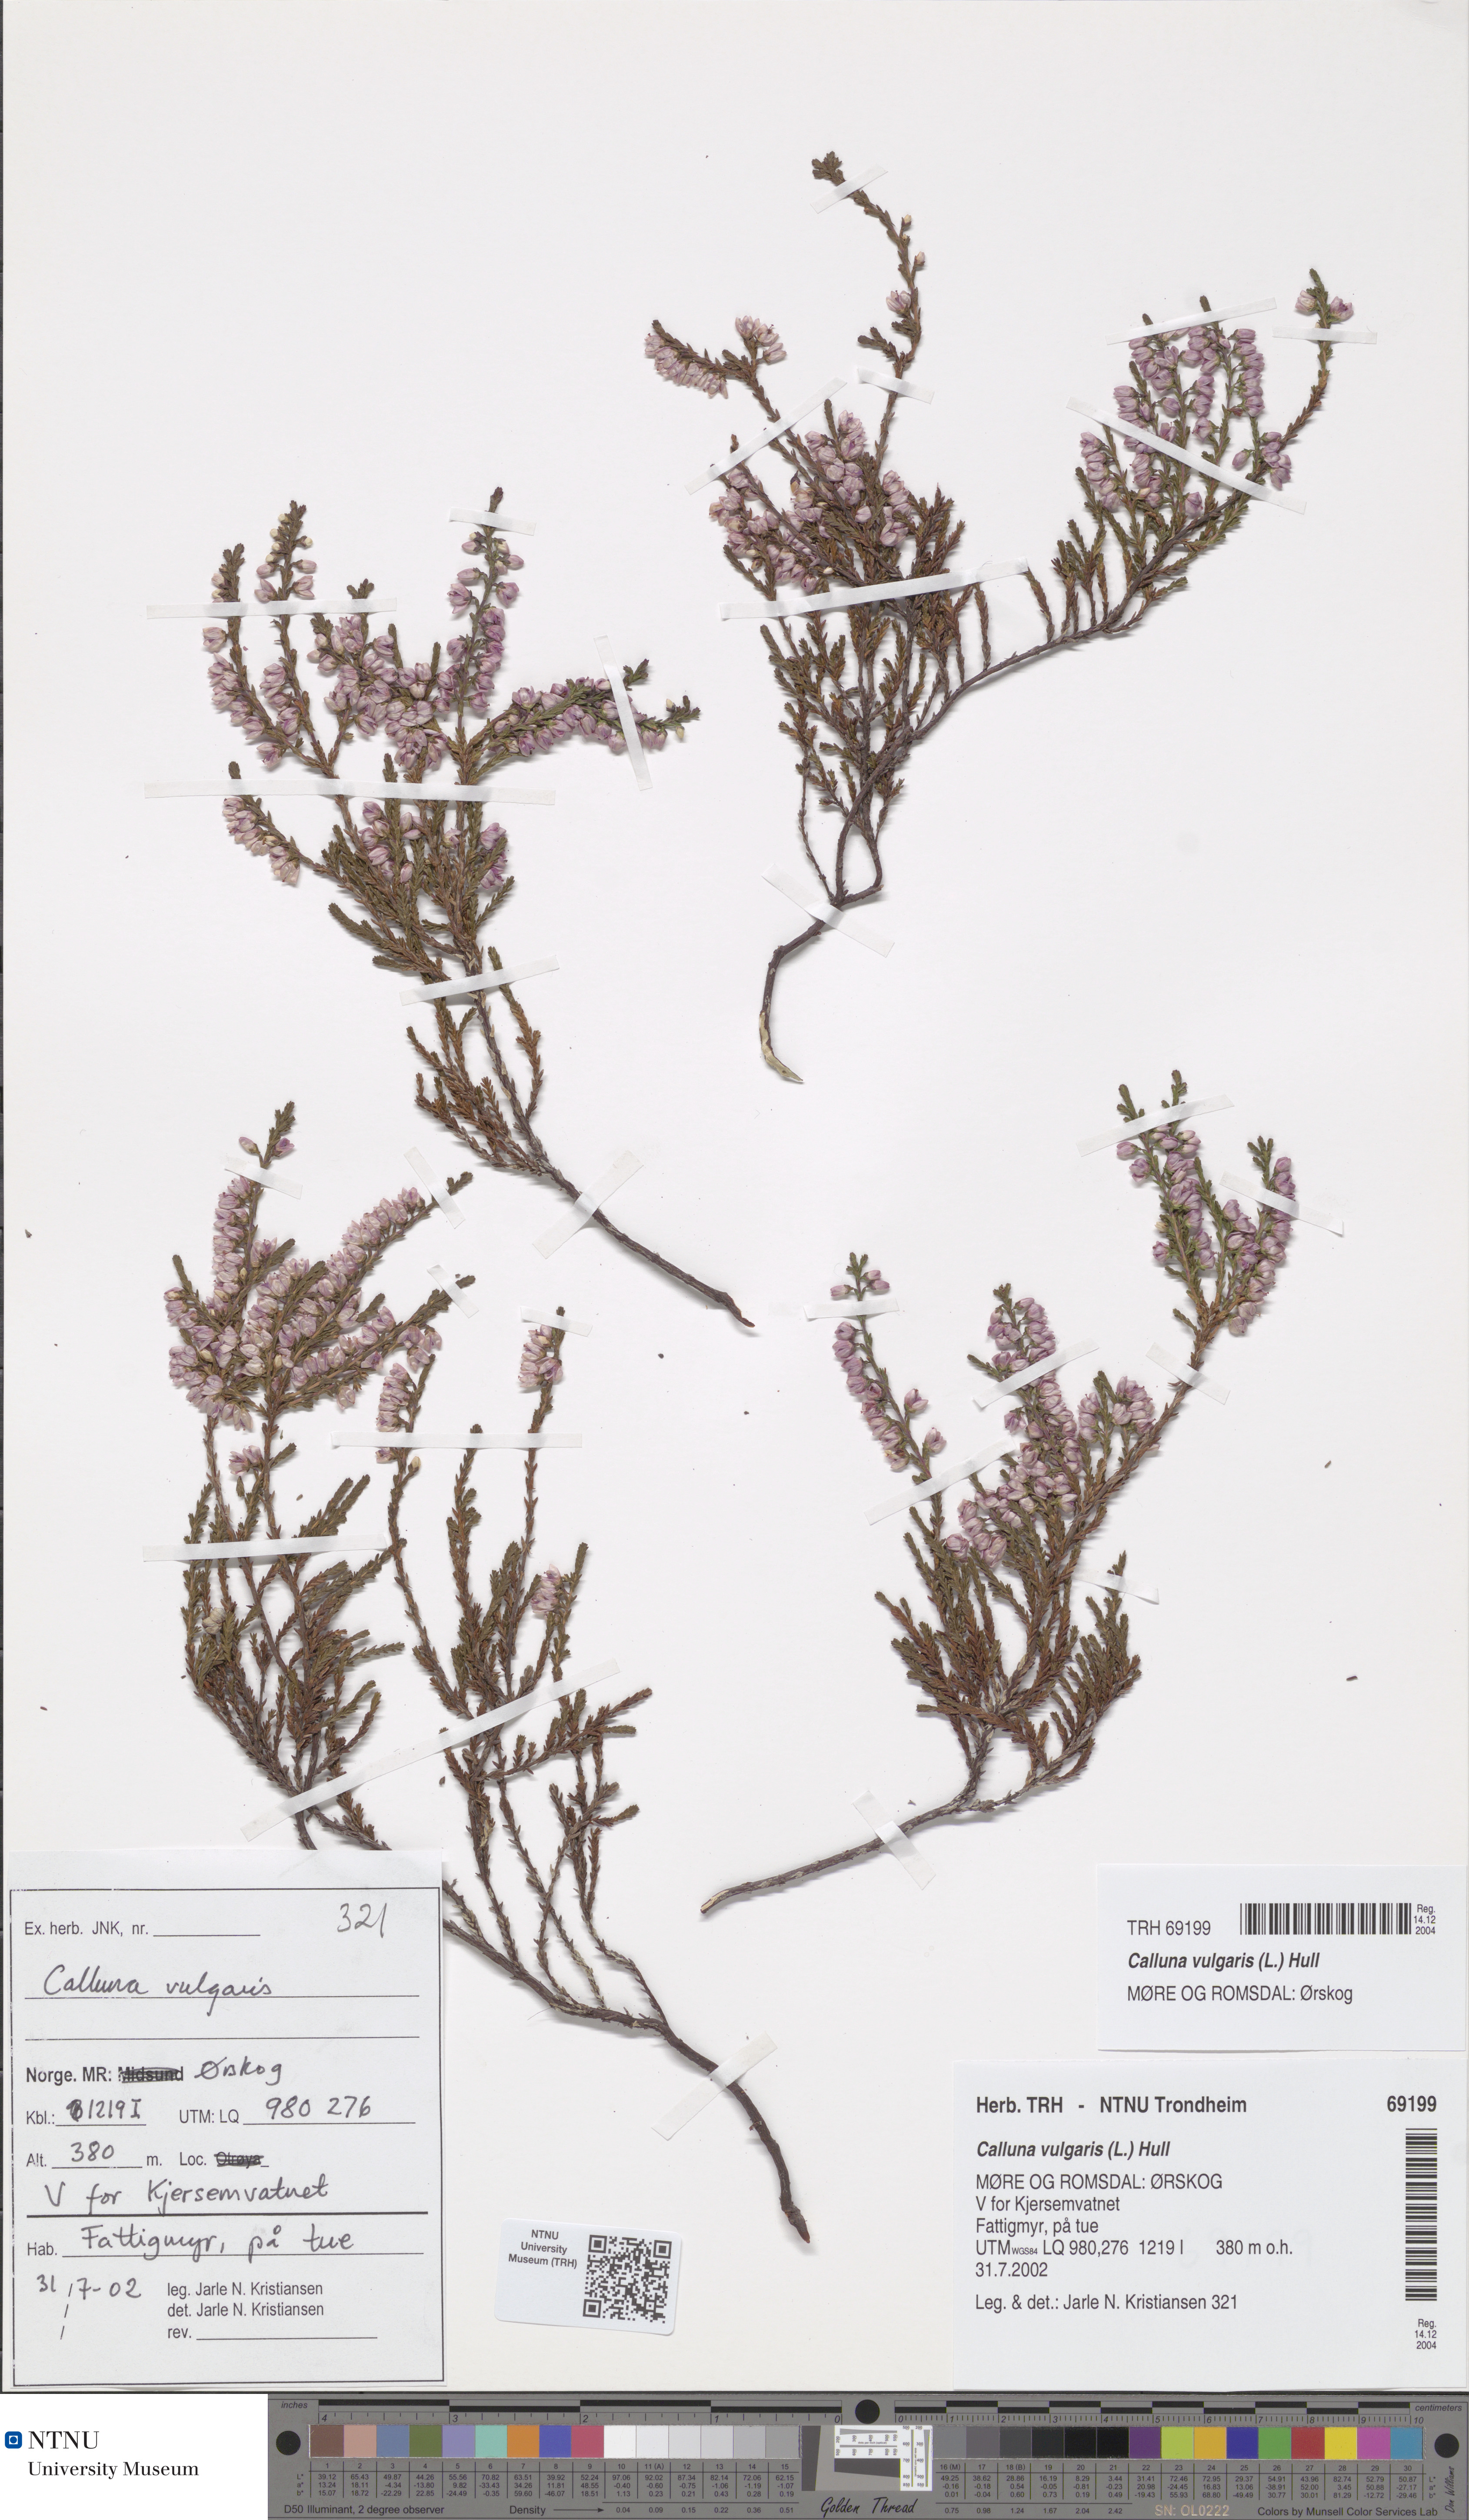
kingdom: Plantae
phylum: Tracheophyta
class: Magnoliopsida
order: Ericales
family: Ericaceae
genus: Calluna
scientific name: Calluna vulgaris
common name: Heather
